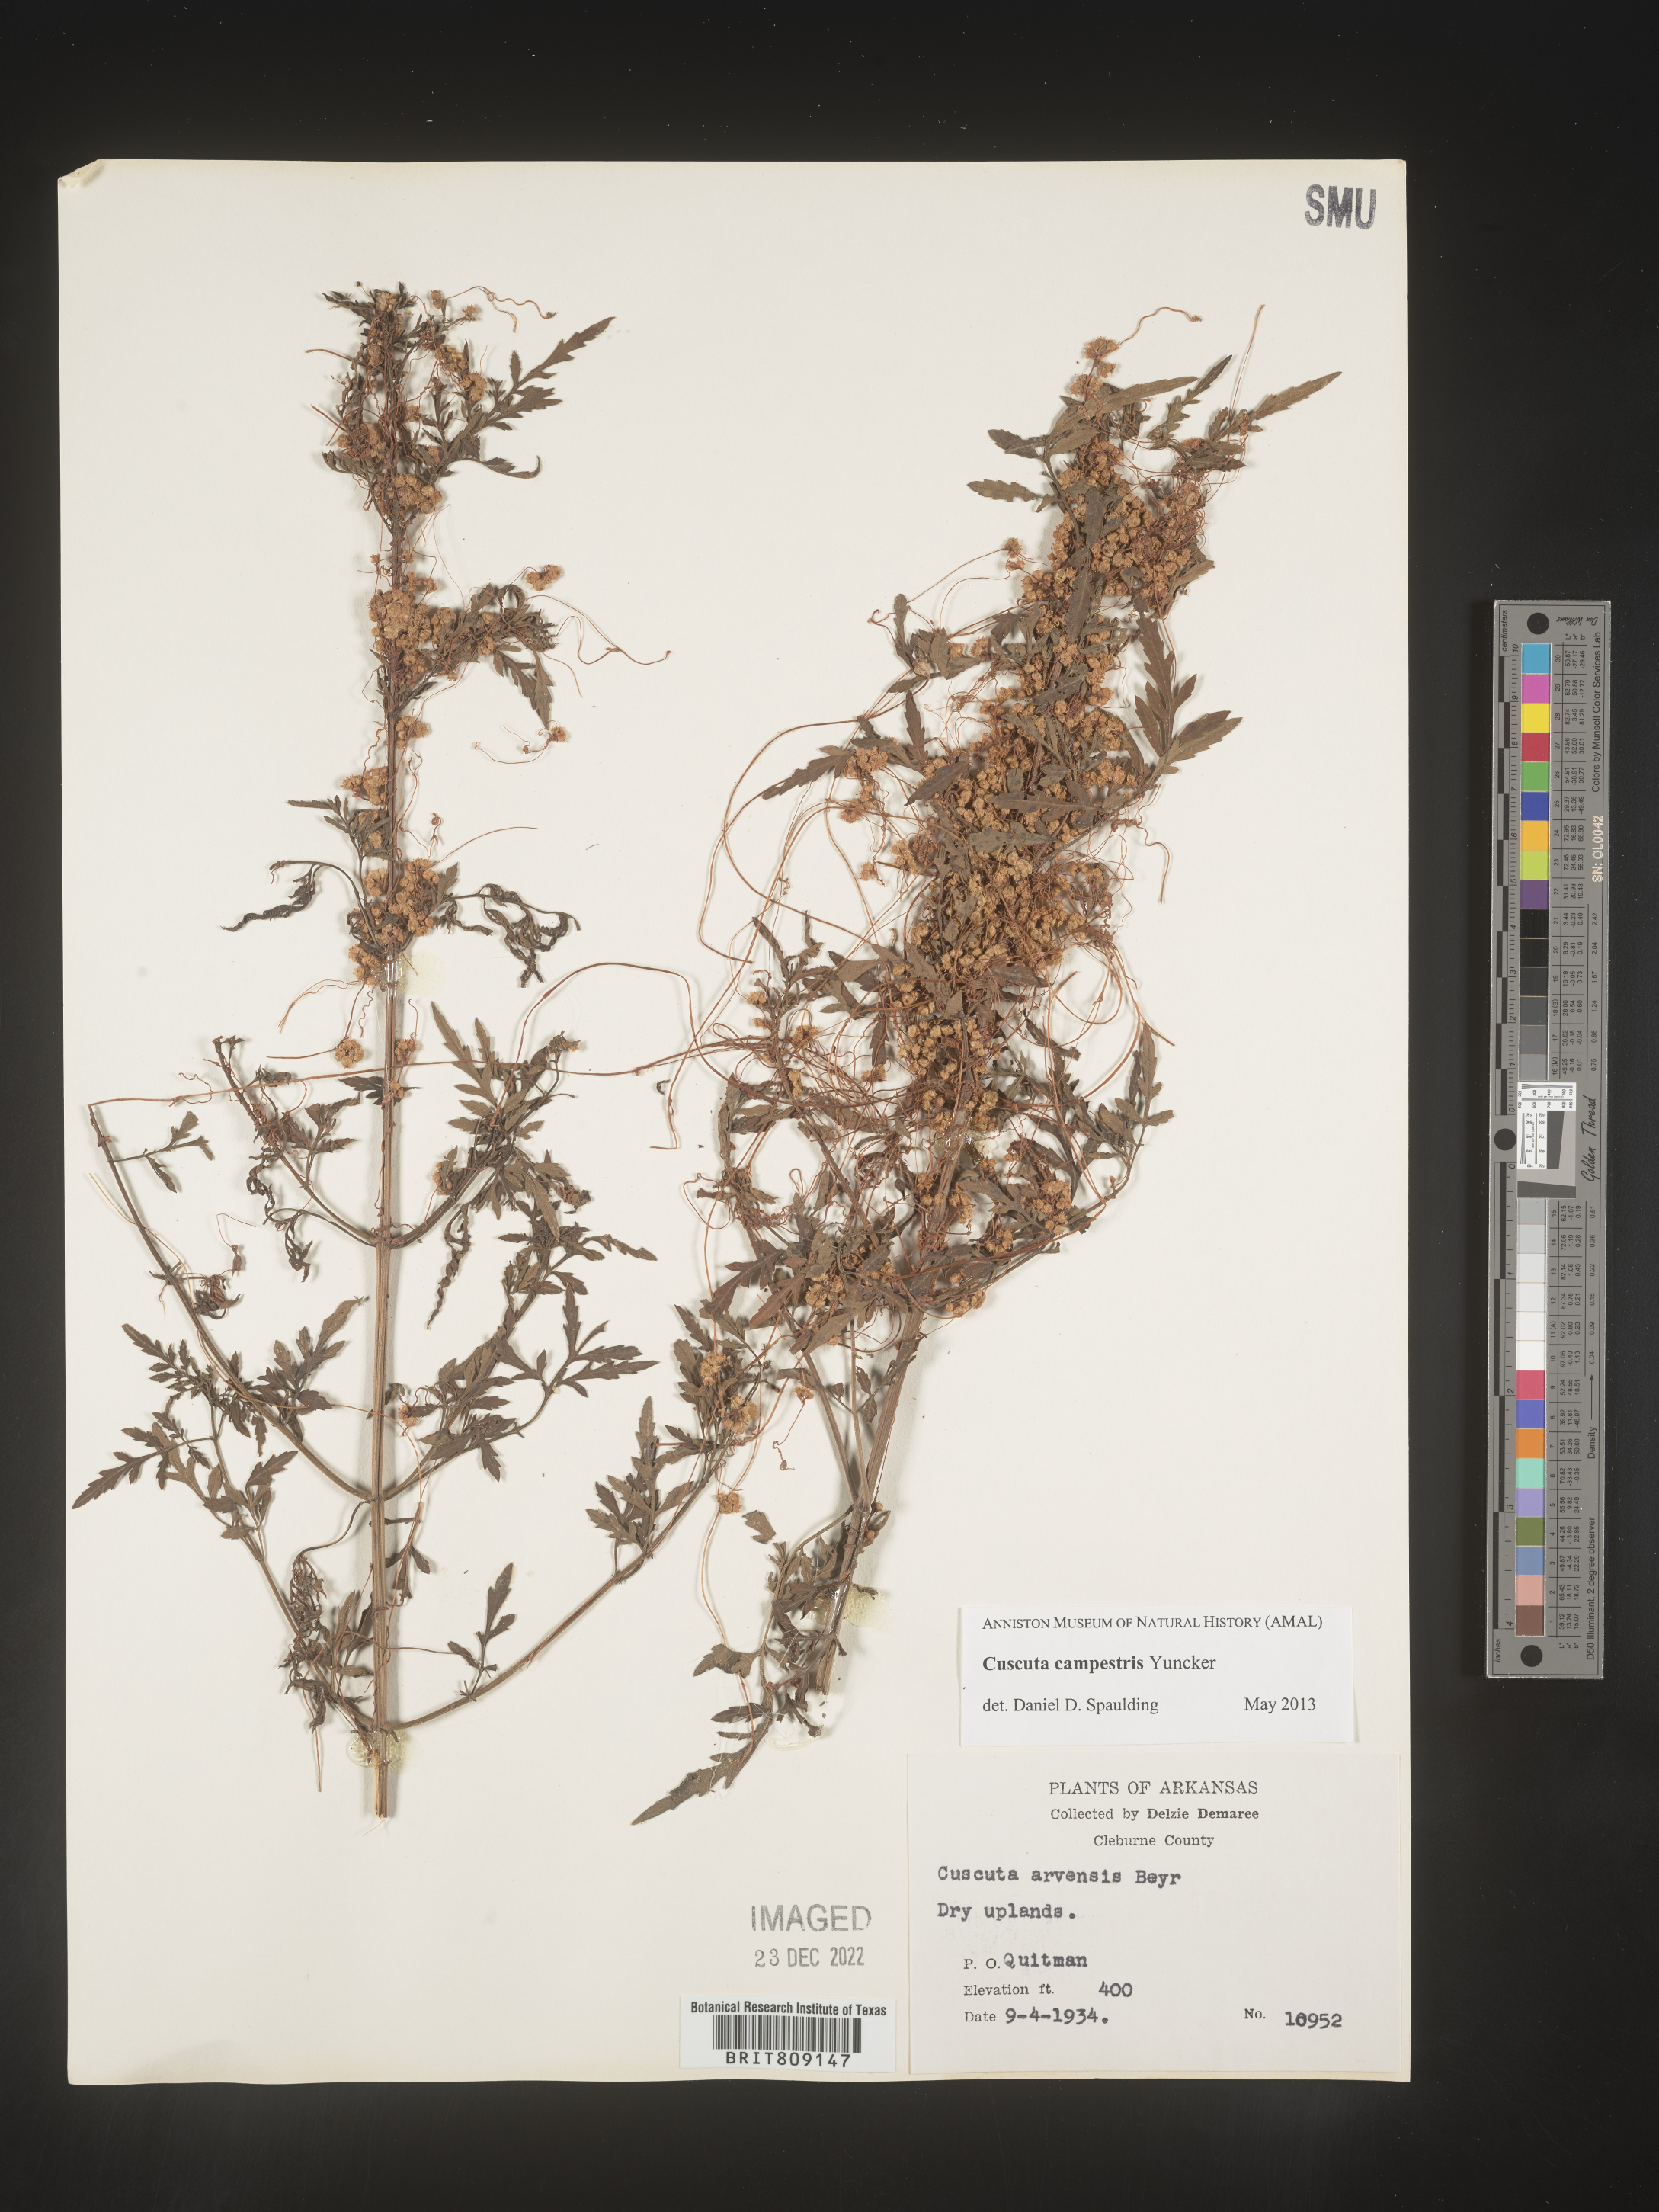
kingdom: Plantae
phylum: Tracheophyta
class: Magnoliopsida
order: Solanales
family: Convolvulaceae
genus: Cuscuta
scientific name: Cuscuta campestris
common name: Yellow dodder
